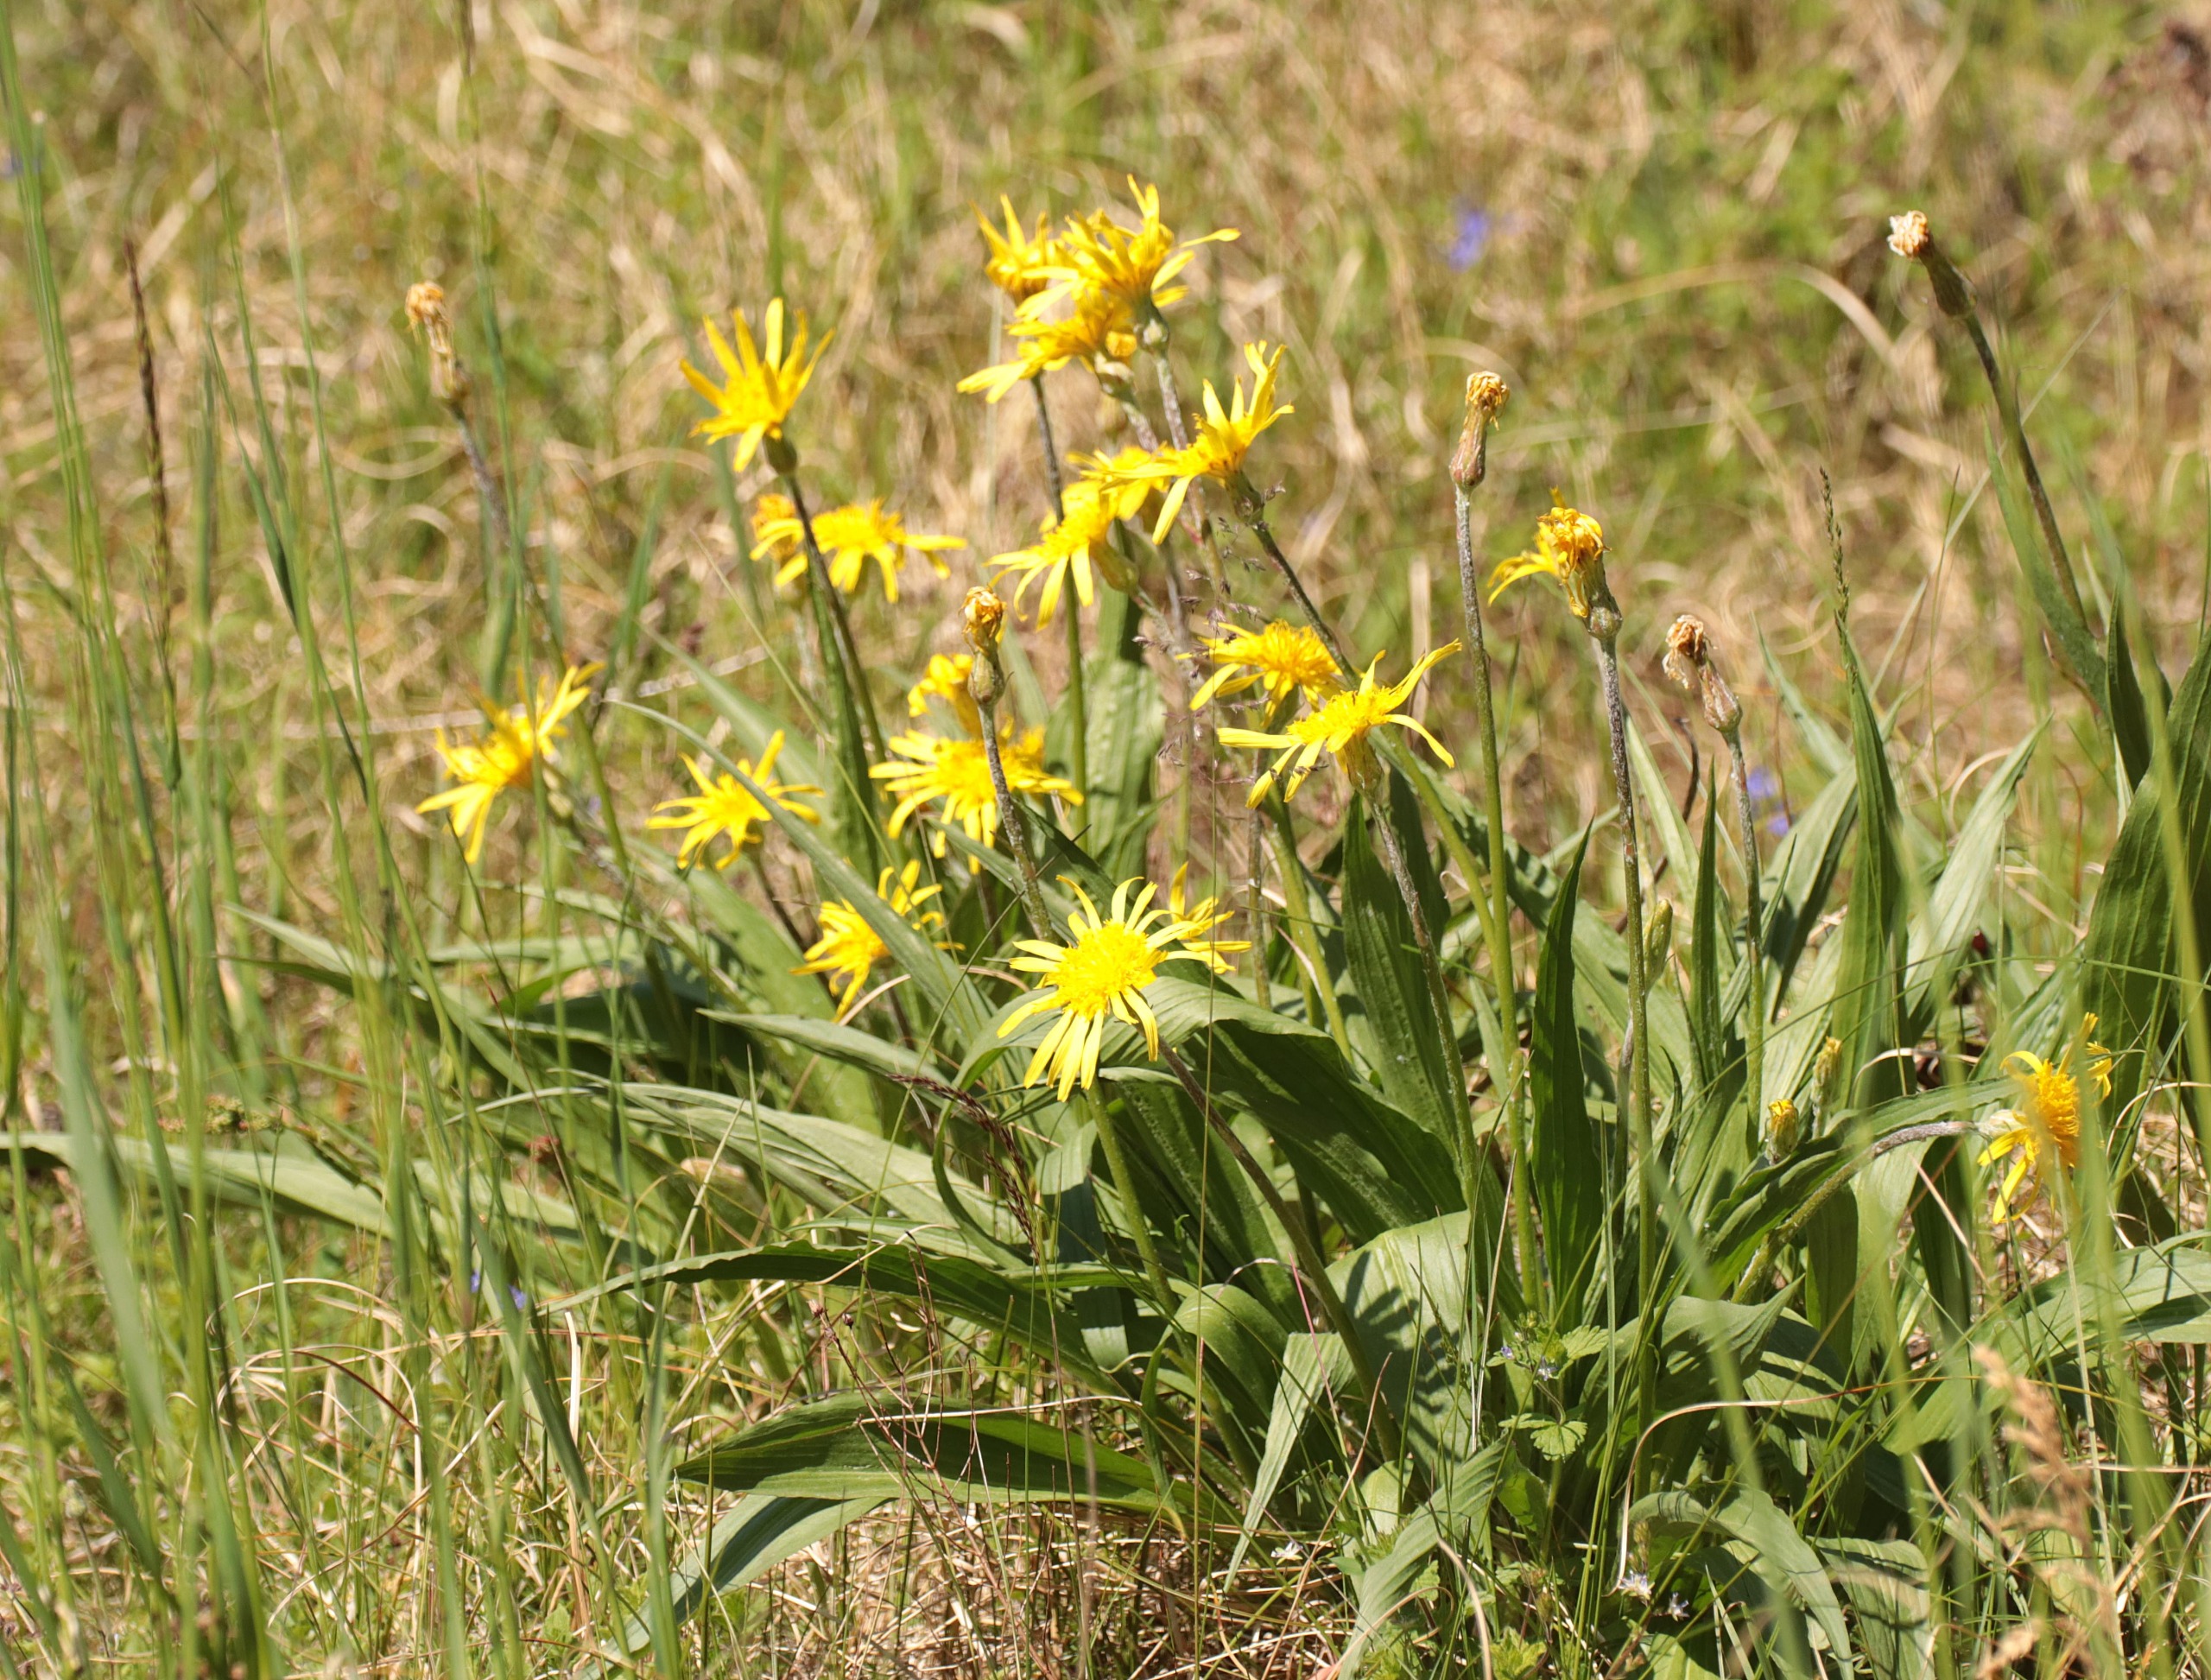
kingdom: Plantae
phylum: Tracheophyta
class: Magnoliopsida
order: Asterales
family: Asteraceae
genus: Scorzonera
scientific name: Scorzonera humilis
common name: Lav skorsoner
